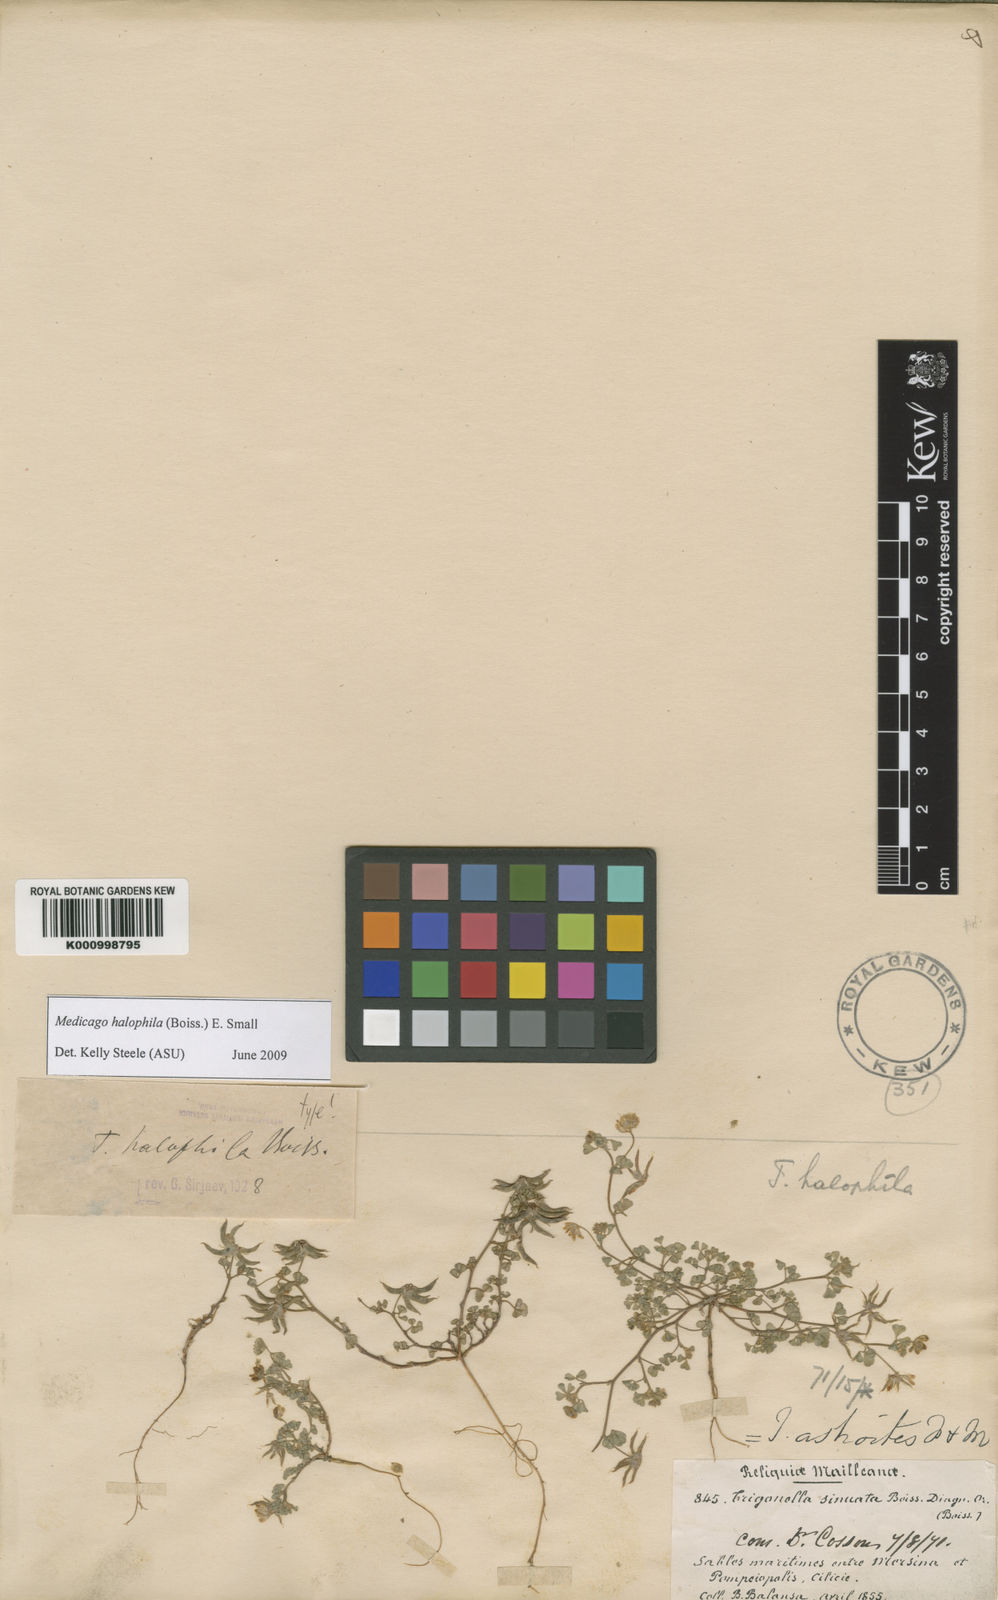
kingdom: Plantae
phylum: Tracheophyta
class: Magnoliopsida
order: Fabales
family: Fabaceae
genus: Medicago
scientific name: Medicago halophila
